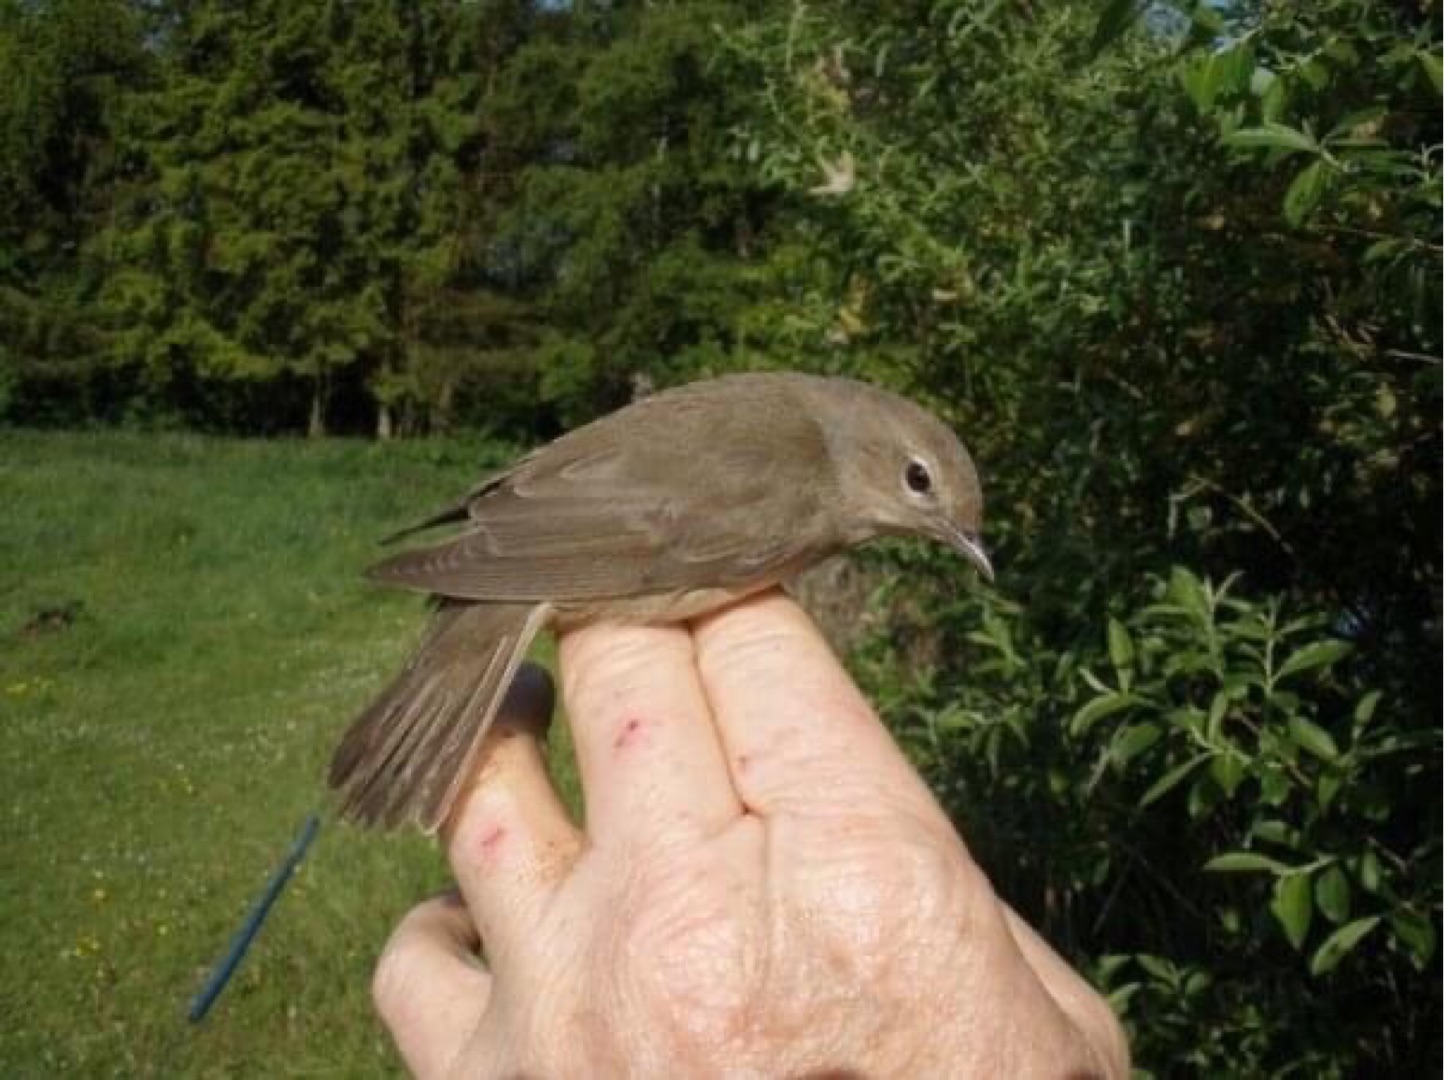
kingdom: Animalia
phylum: Chordata
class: Aves
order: Passeriformes
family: Sylviidae
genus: Sylvia
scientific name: Sylvia borin
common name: Havesanger
